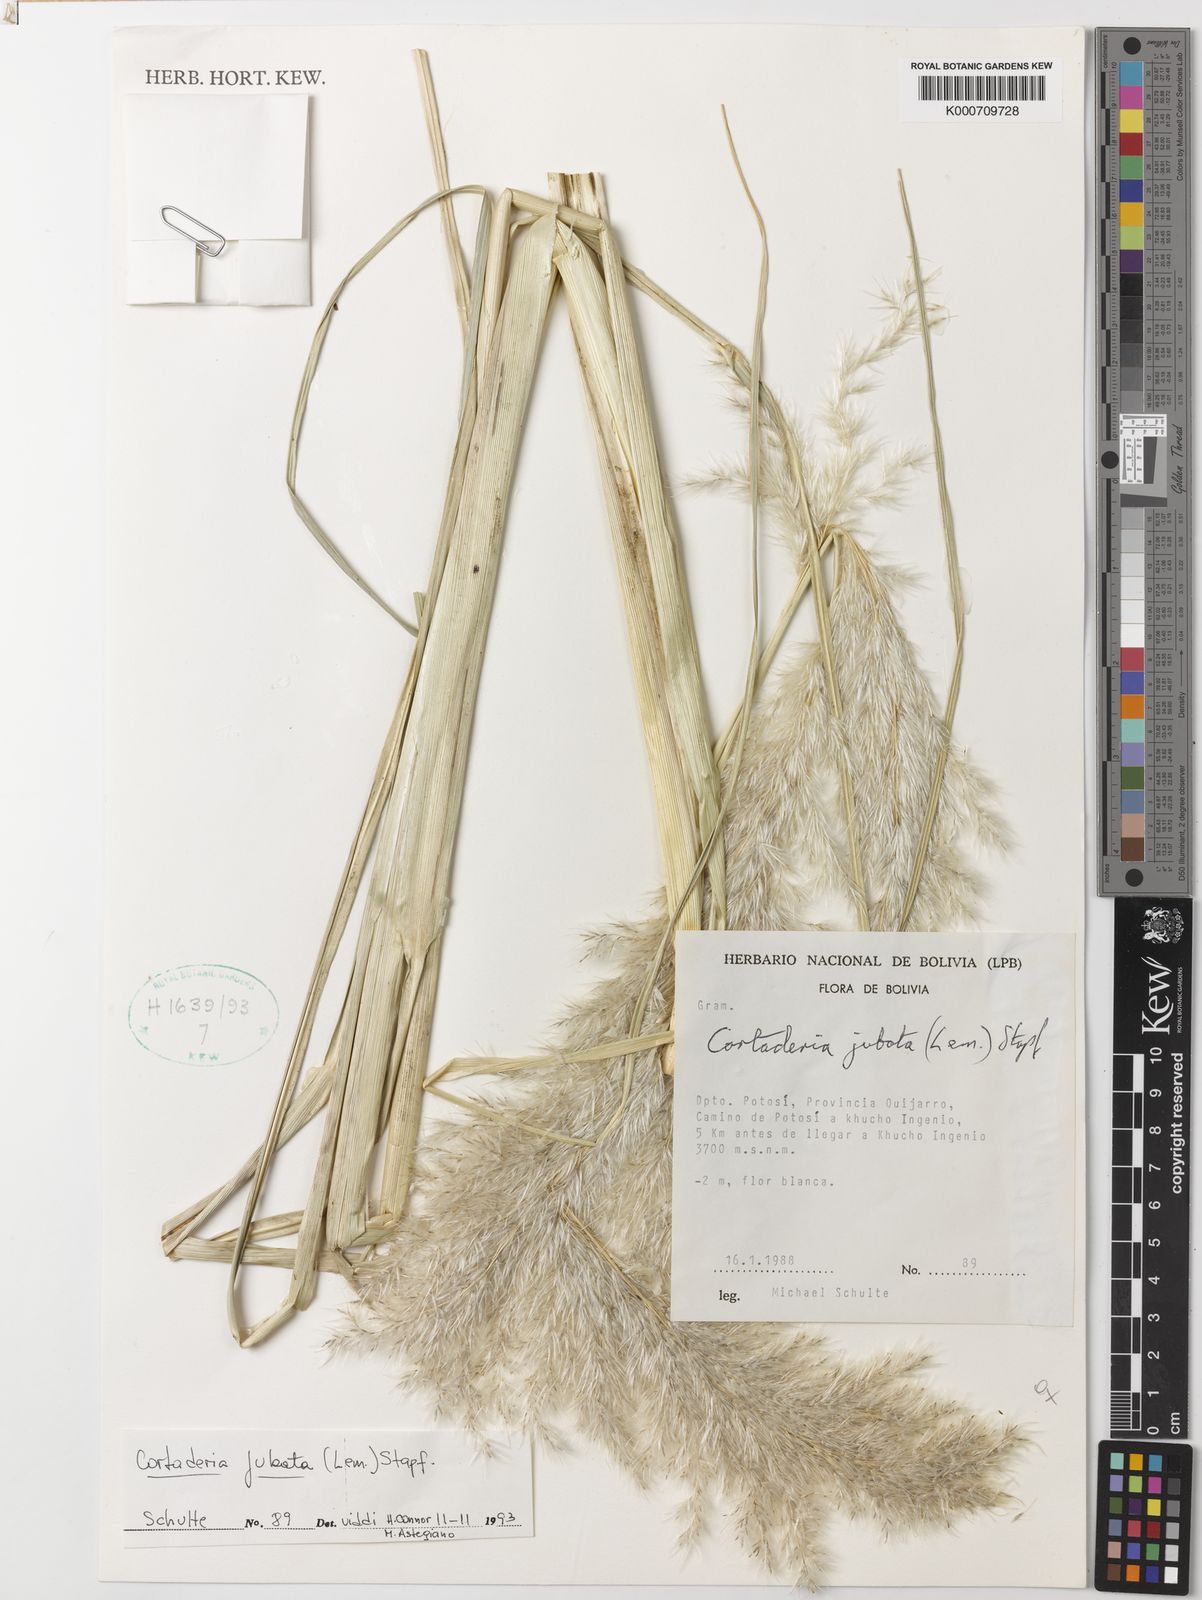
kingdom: Plantae
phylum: Tracheophyta
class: Liliopsida
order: Poales
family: Poaceae
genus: Cortaderia
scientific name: Cortaderia jubata
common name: Purple pampas grass
